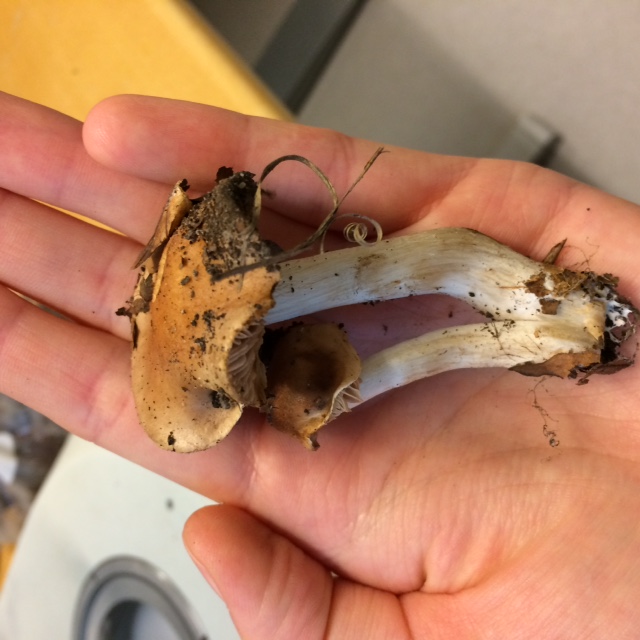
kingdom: Fungi
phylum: Basidiomycota
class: Agaricomycetes
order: Agaricales
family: Hymenogastraceae
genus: Hebeloma
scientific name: Hebeloma aestivale
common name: sommer-tåreblad
